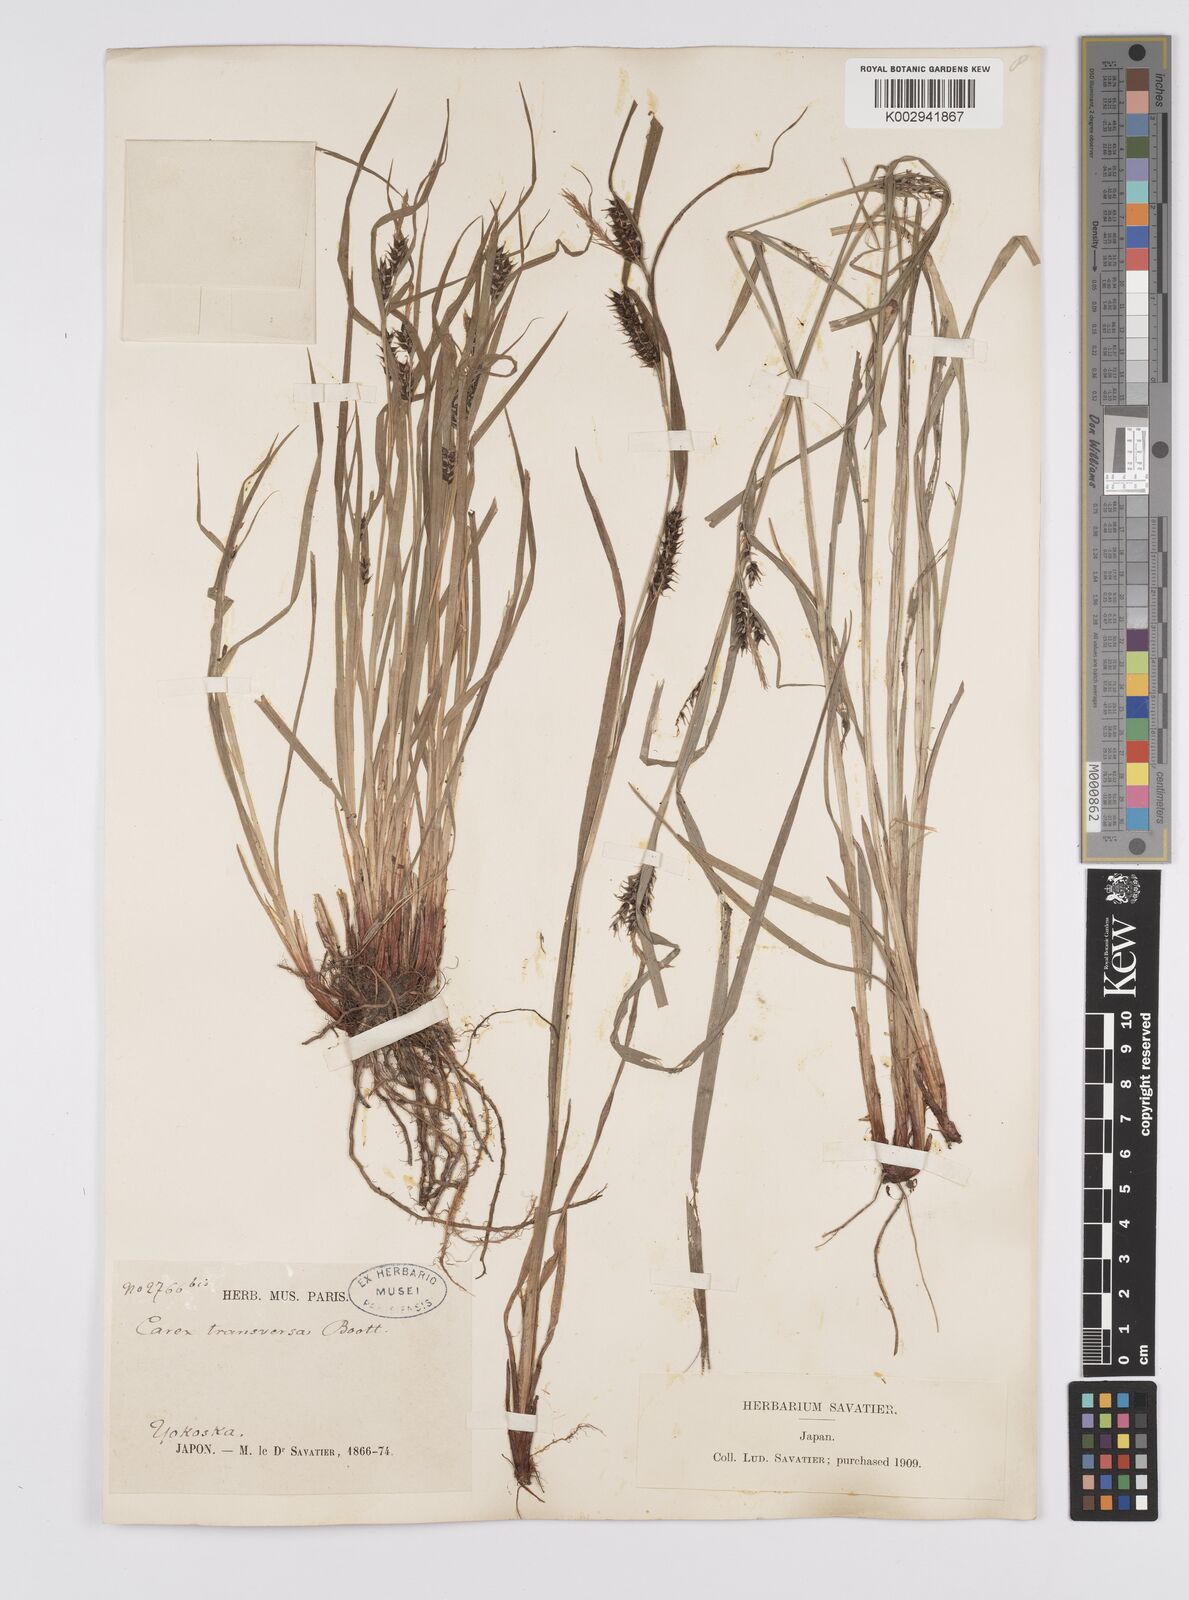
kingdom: Plantae
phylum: Tracheophyta
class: Liliopsida
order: Poales
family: Cyperaceae
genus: Carex
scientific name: Carex brownii
